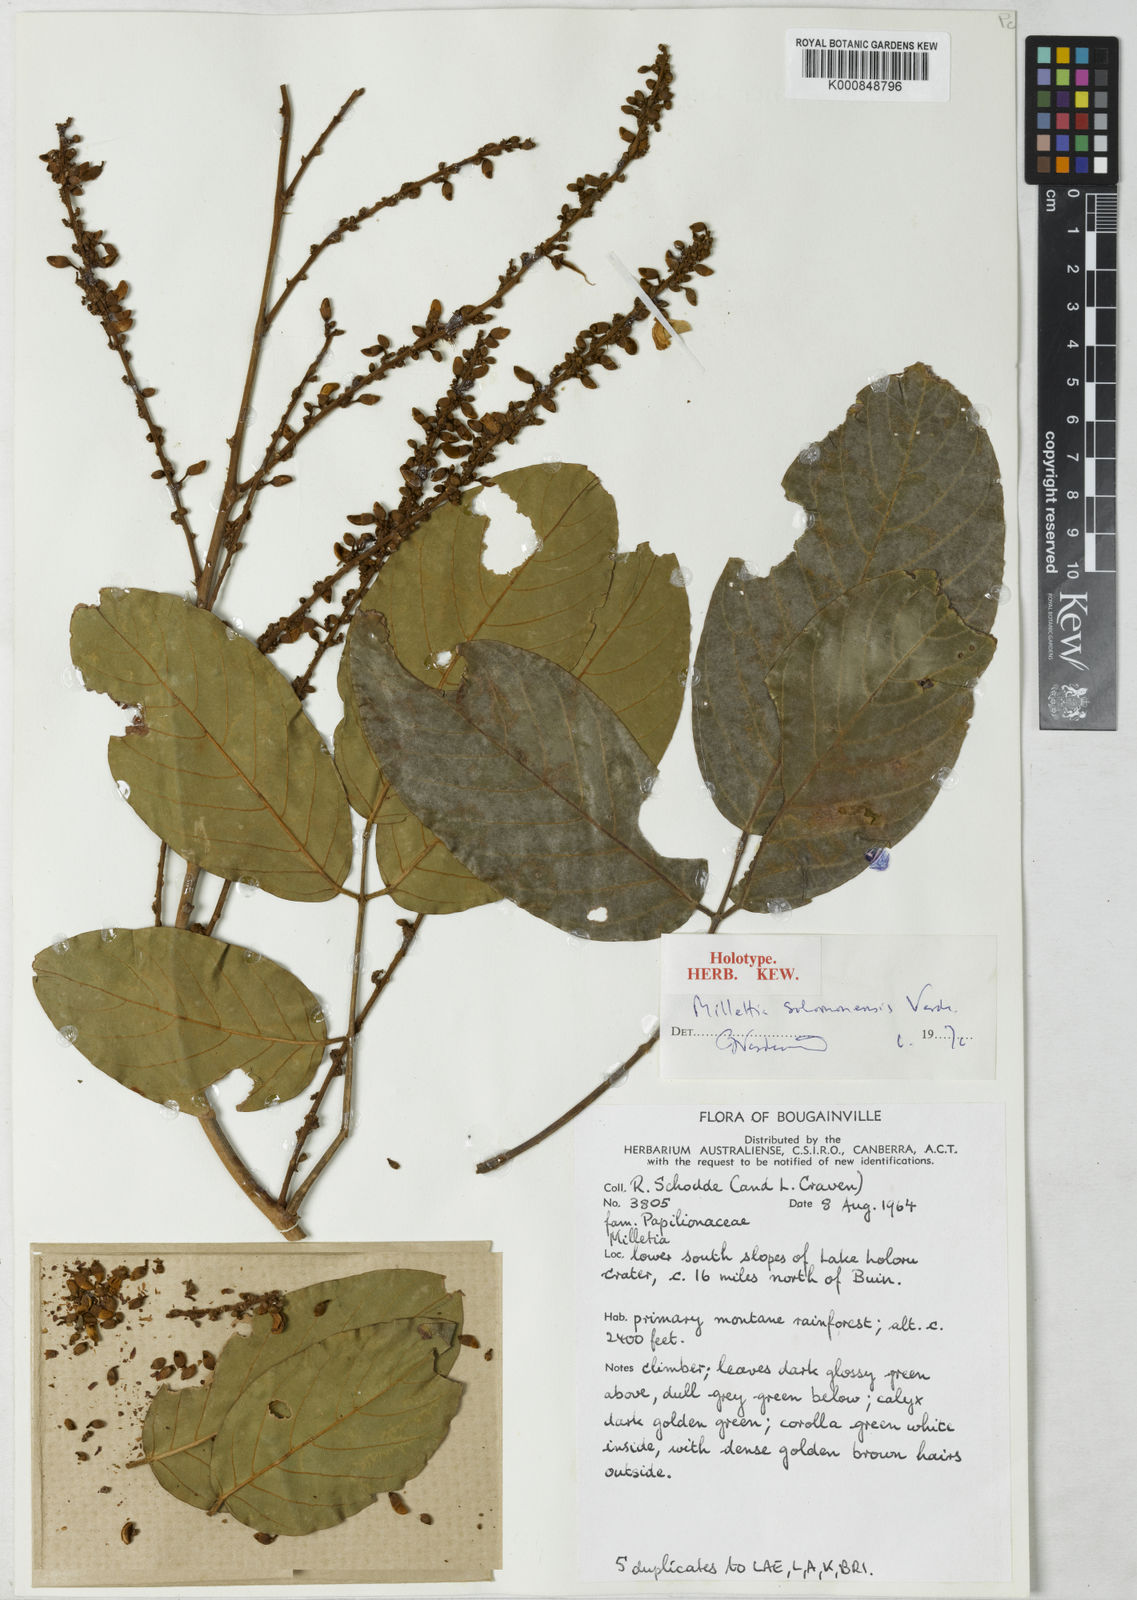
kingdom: Plantae
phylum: Tracheophyta
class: Magnoliopsida
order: Fabales
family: Fabaceae
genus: Millettia
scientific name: Millettia solomonensis
